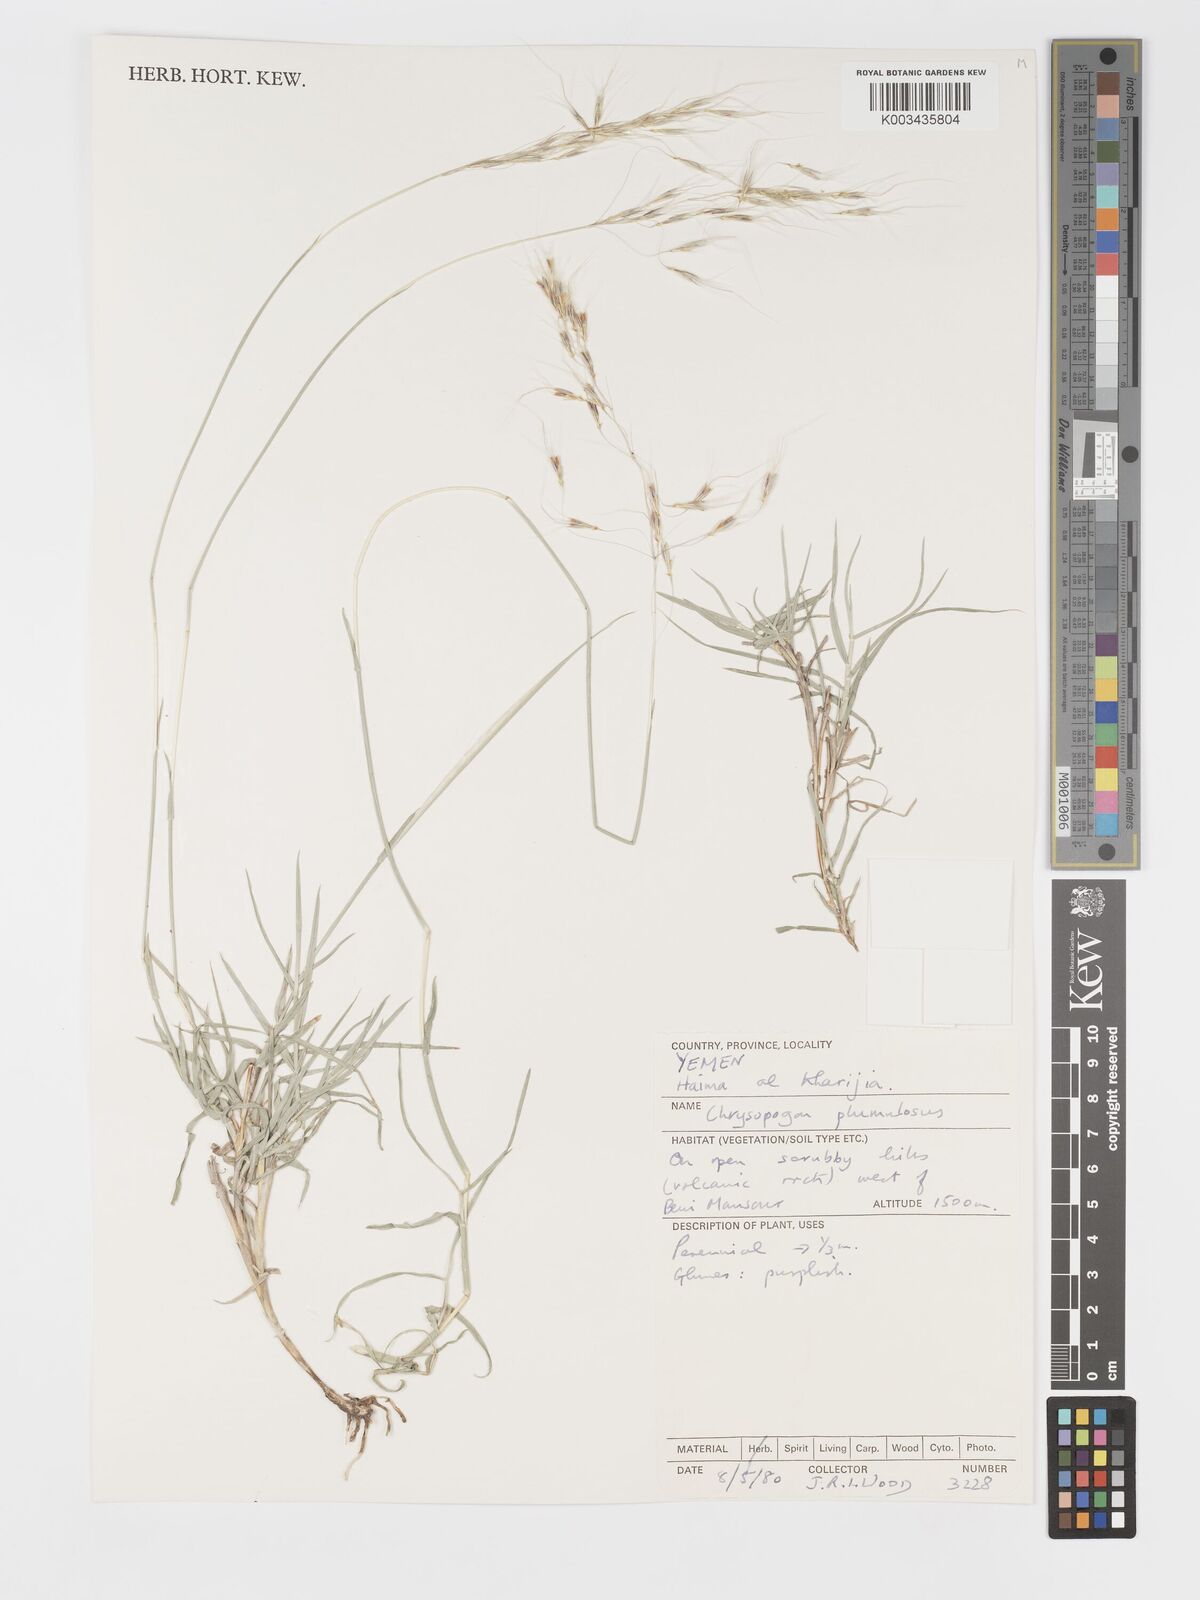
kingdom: Plantae
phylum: Tracheophyta
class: Liliopsida
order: Poales
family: Poaceae
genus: Chrysopogon
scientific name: Chrysopogon plumulosus
